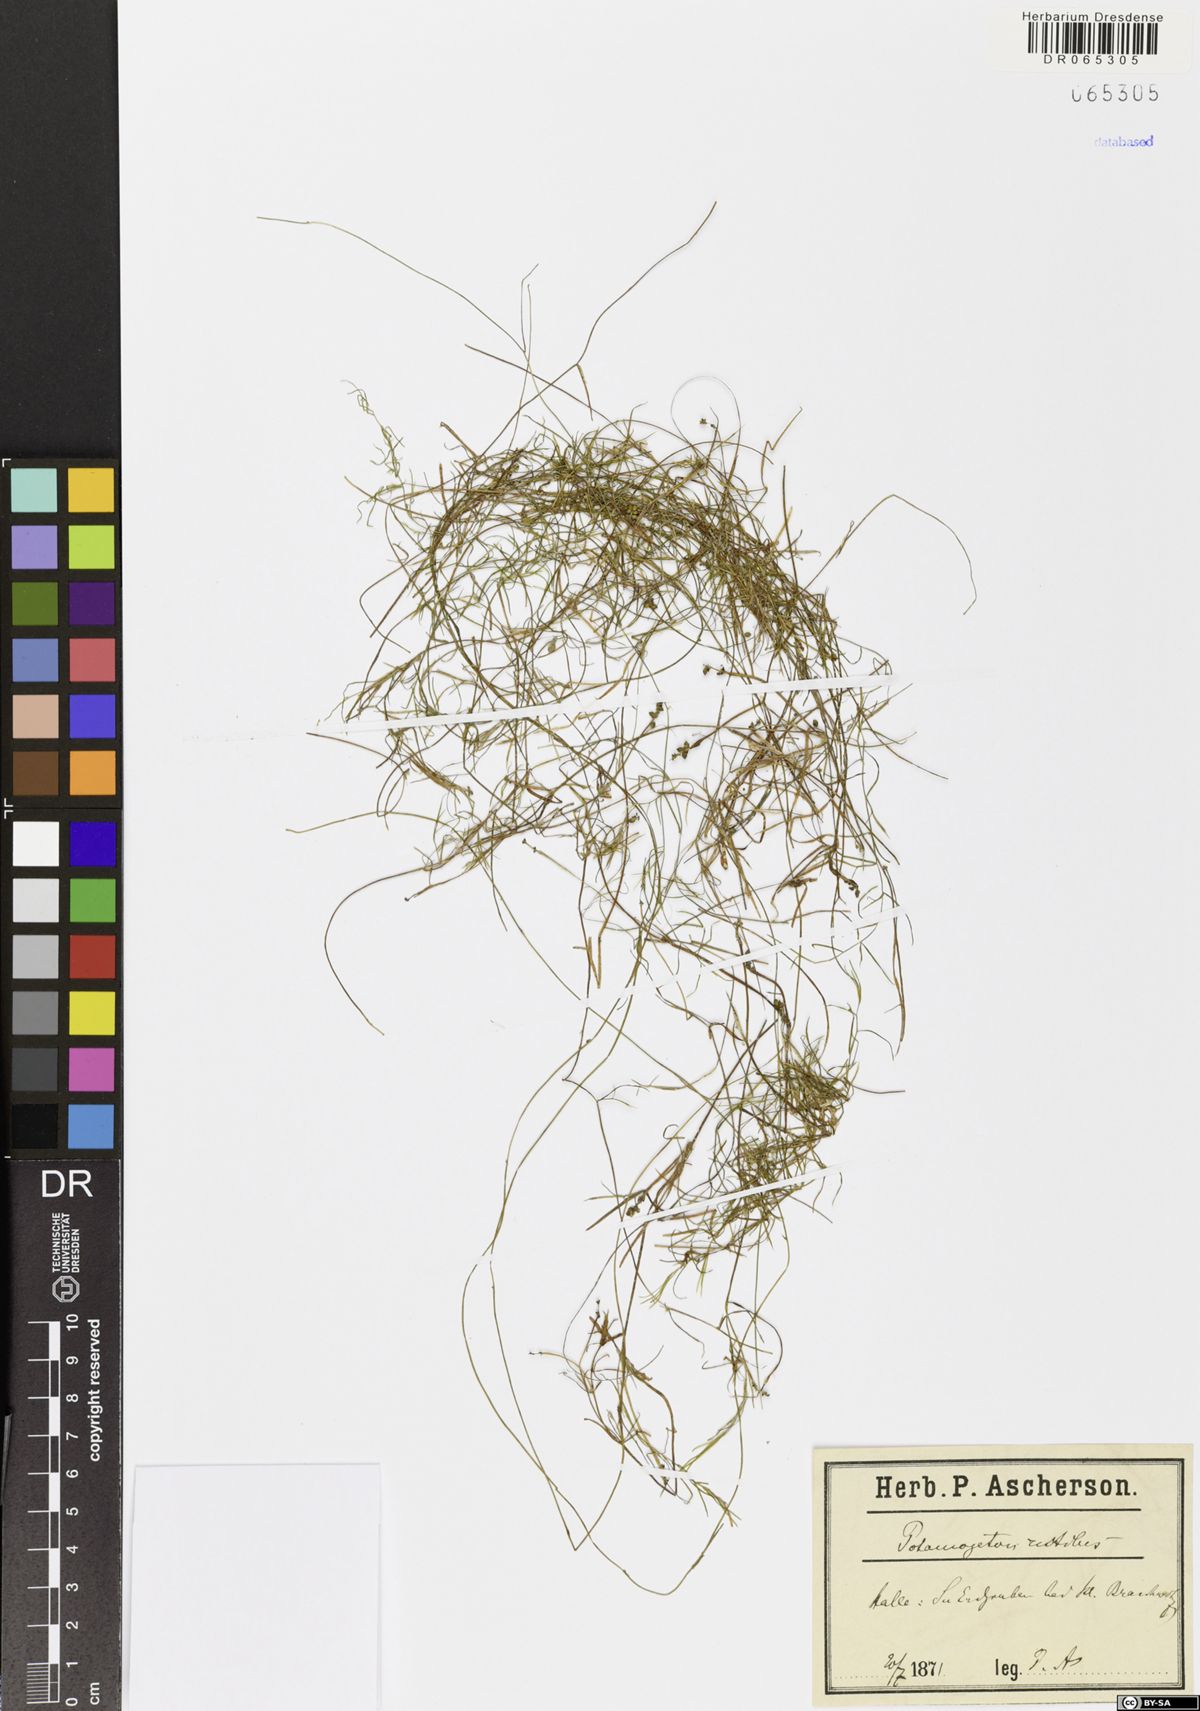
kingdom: Plantae
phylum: Tracheophyta
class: Liliopsida
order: Alismatales
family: Potamogetonaceae
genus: Potamogeton
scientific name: Potamogeton rutilus
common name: Shetland pondweed
